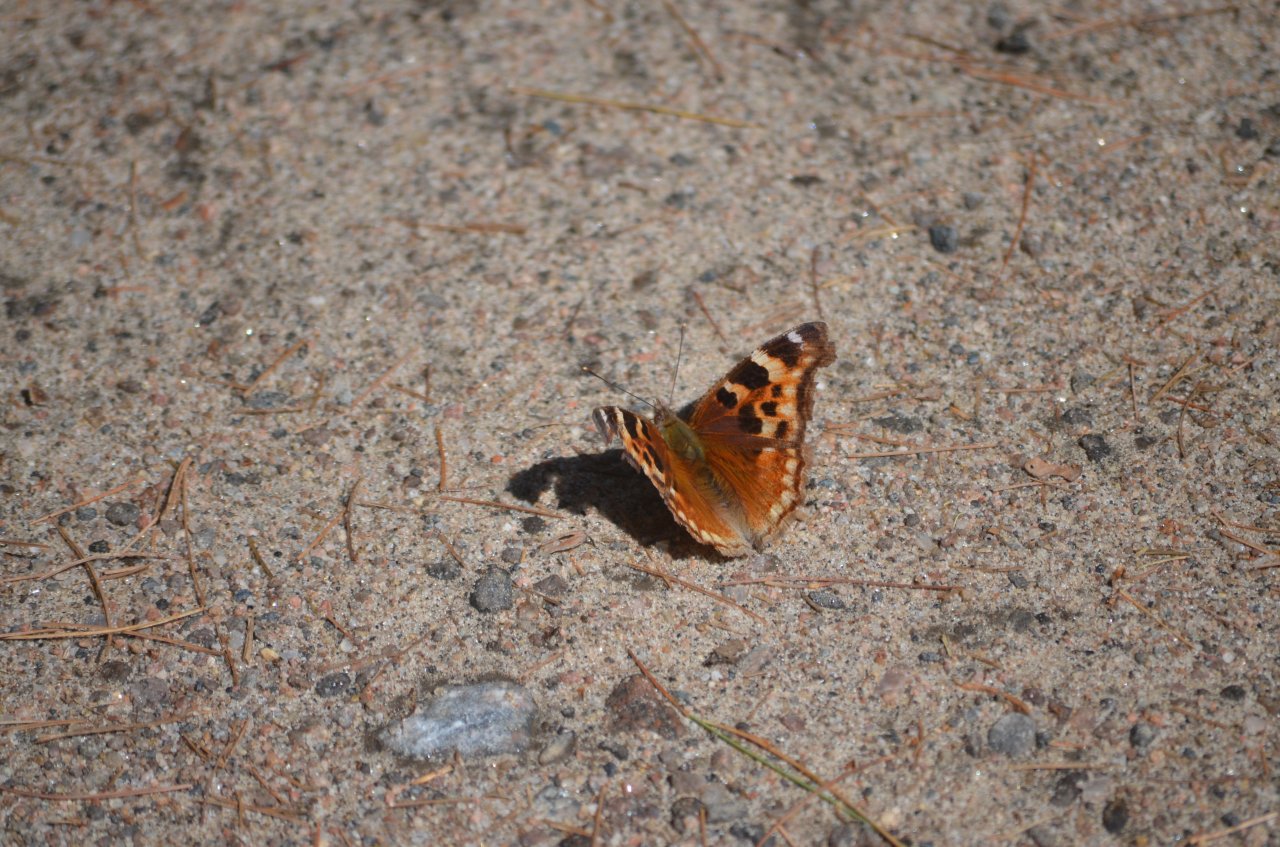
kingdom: Animalia
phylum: Arthropoda
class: Insecta
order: Lepidoptera
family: Nymphalidae
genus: Polygonia
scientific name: Polygonia vaualbum
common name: Compton Tortoiseshell
